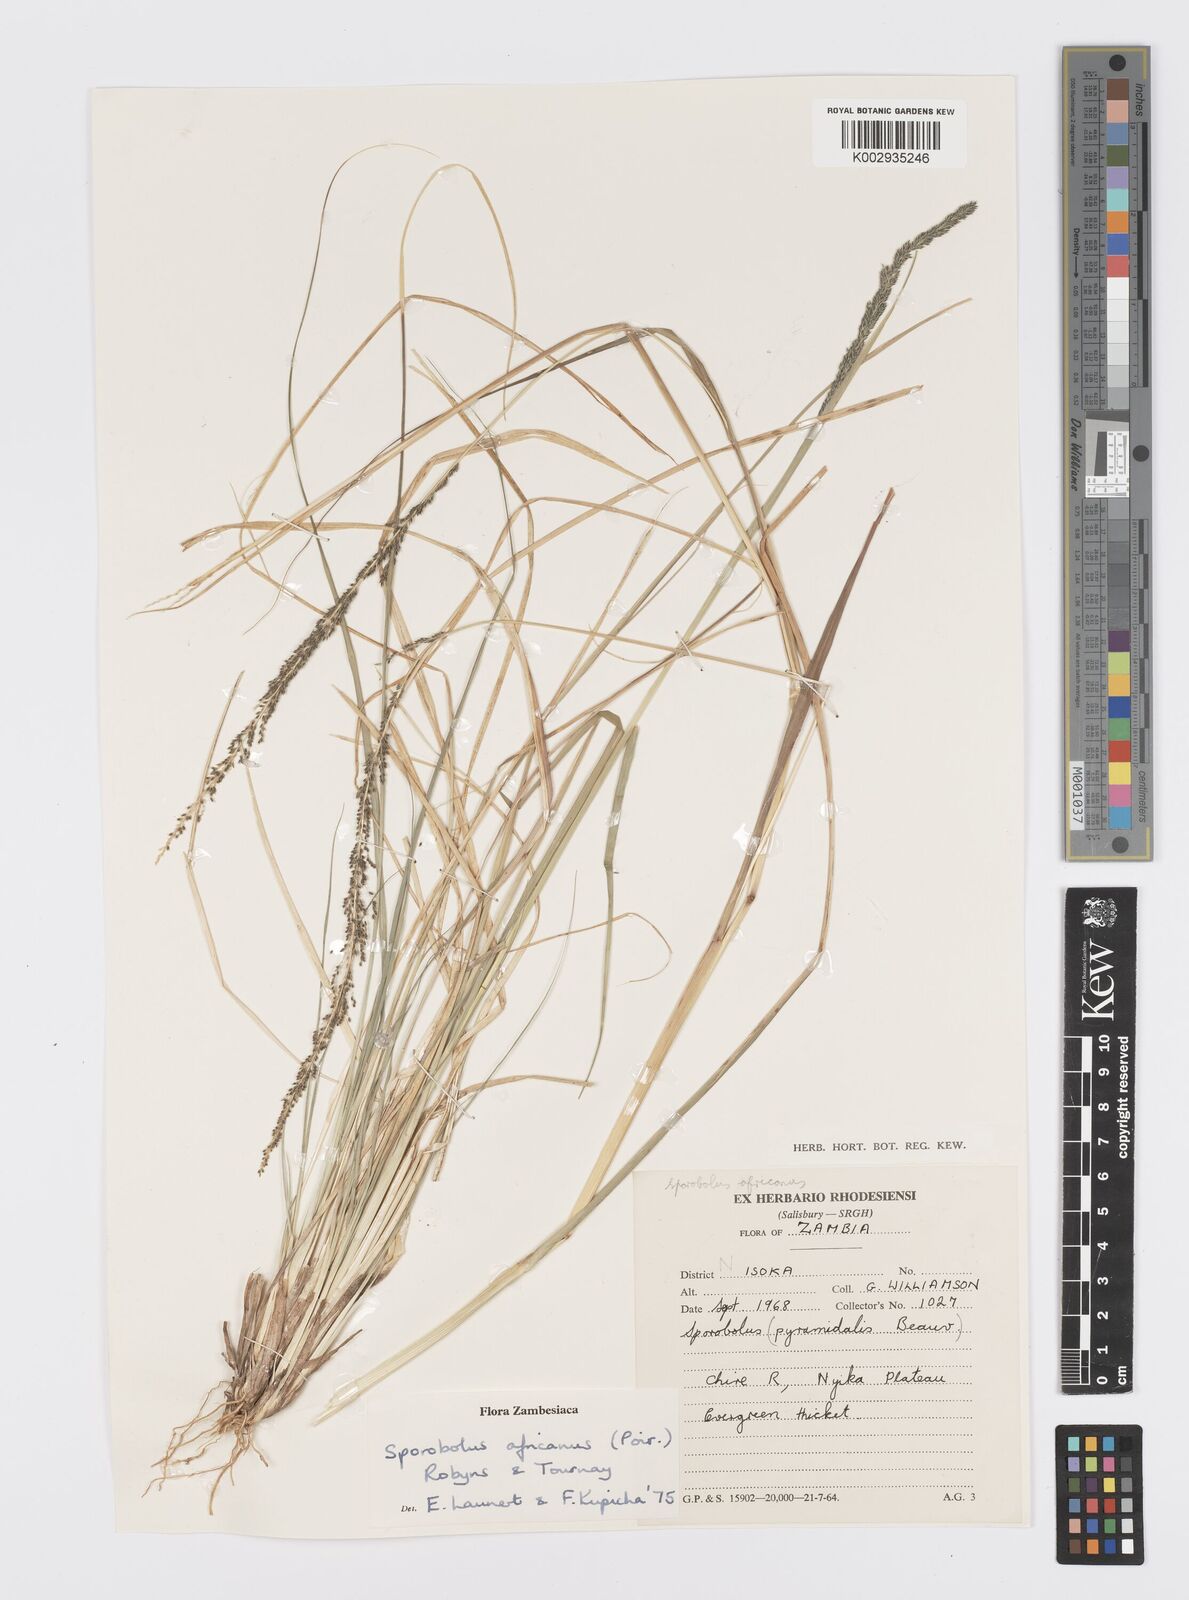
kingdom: Plantae
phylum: Tracheophyta
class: Liliopsida
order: Poales
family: Poaceae
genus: Sporobolus
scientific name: Sporobolus africanus
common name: African dropseed
